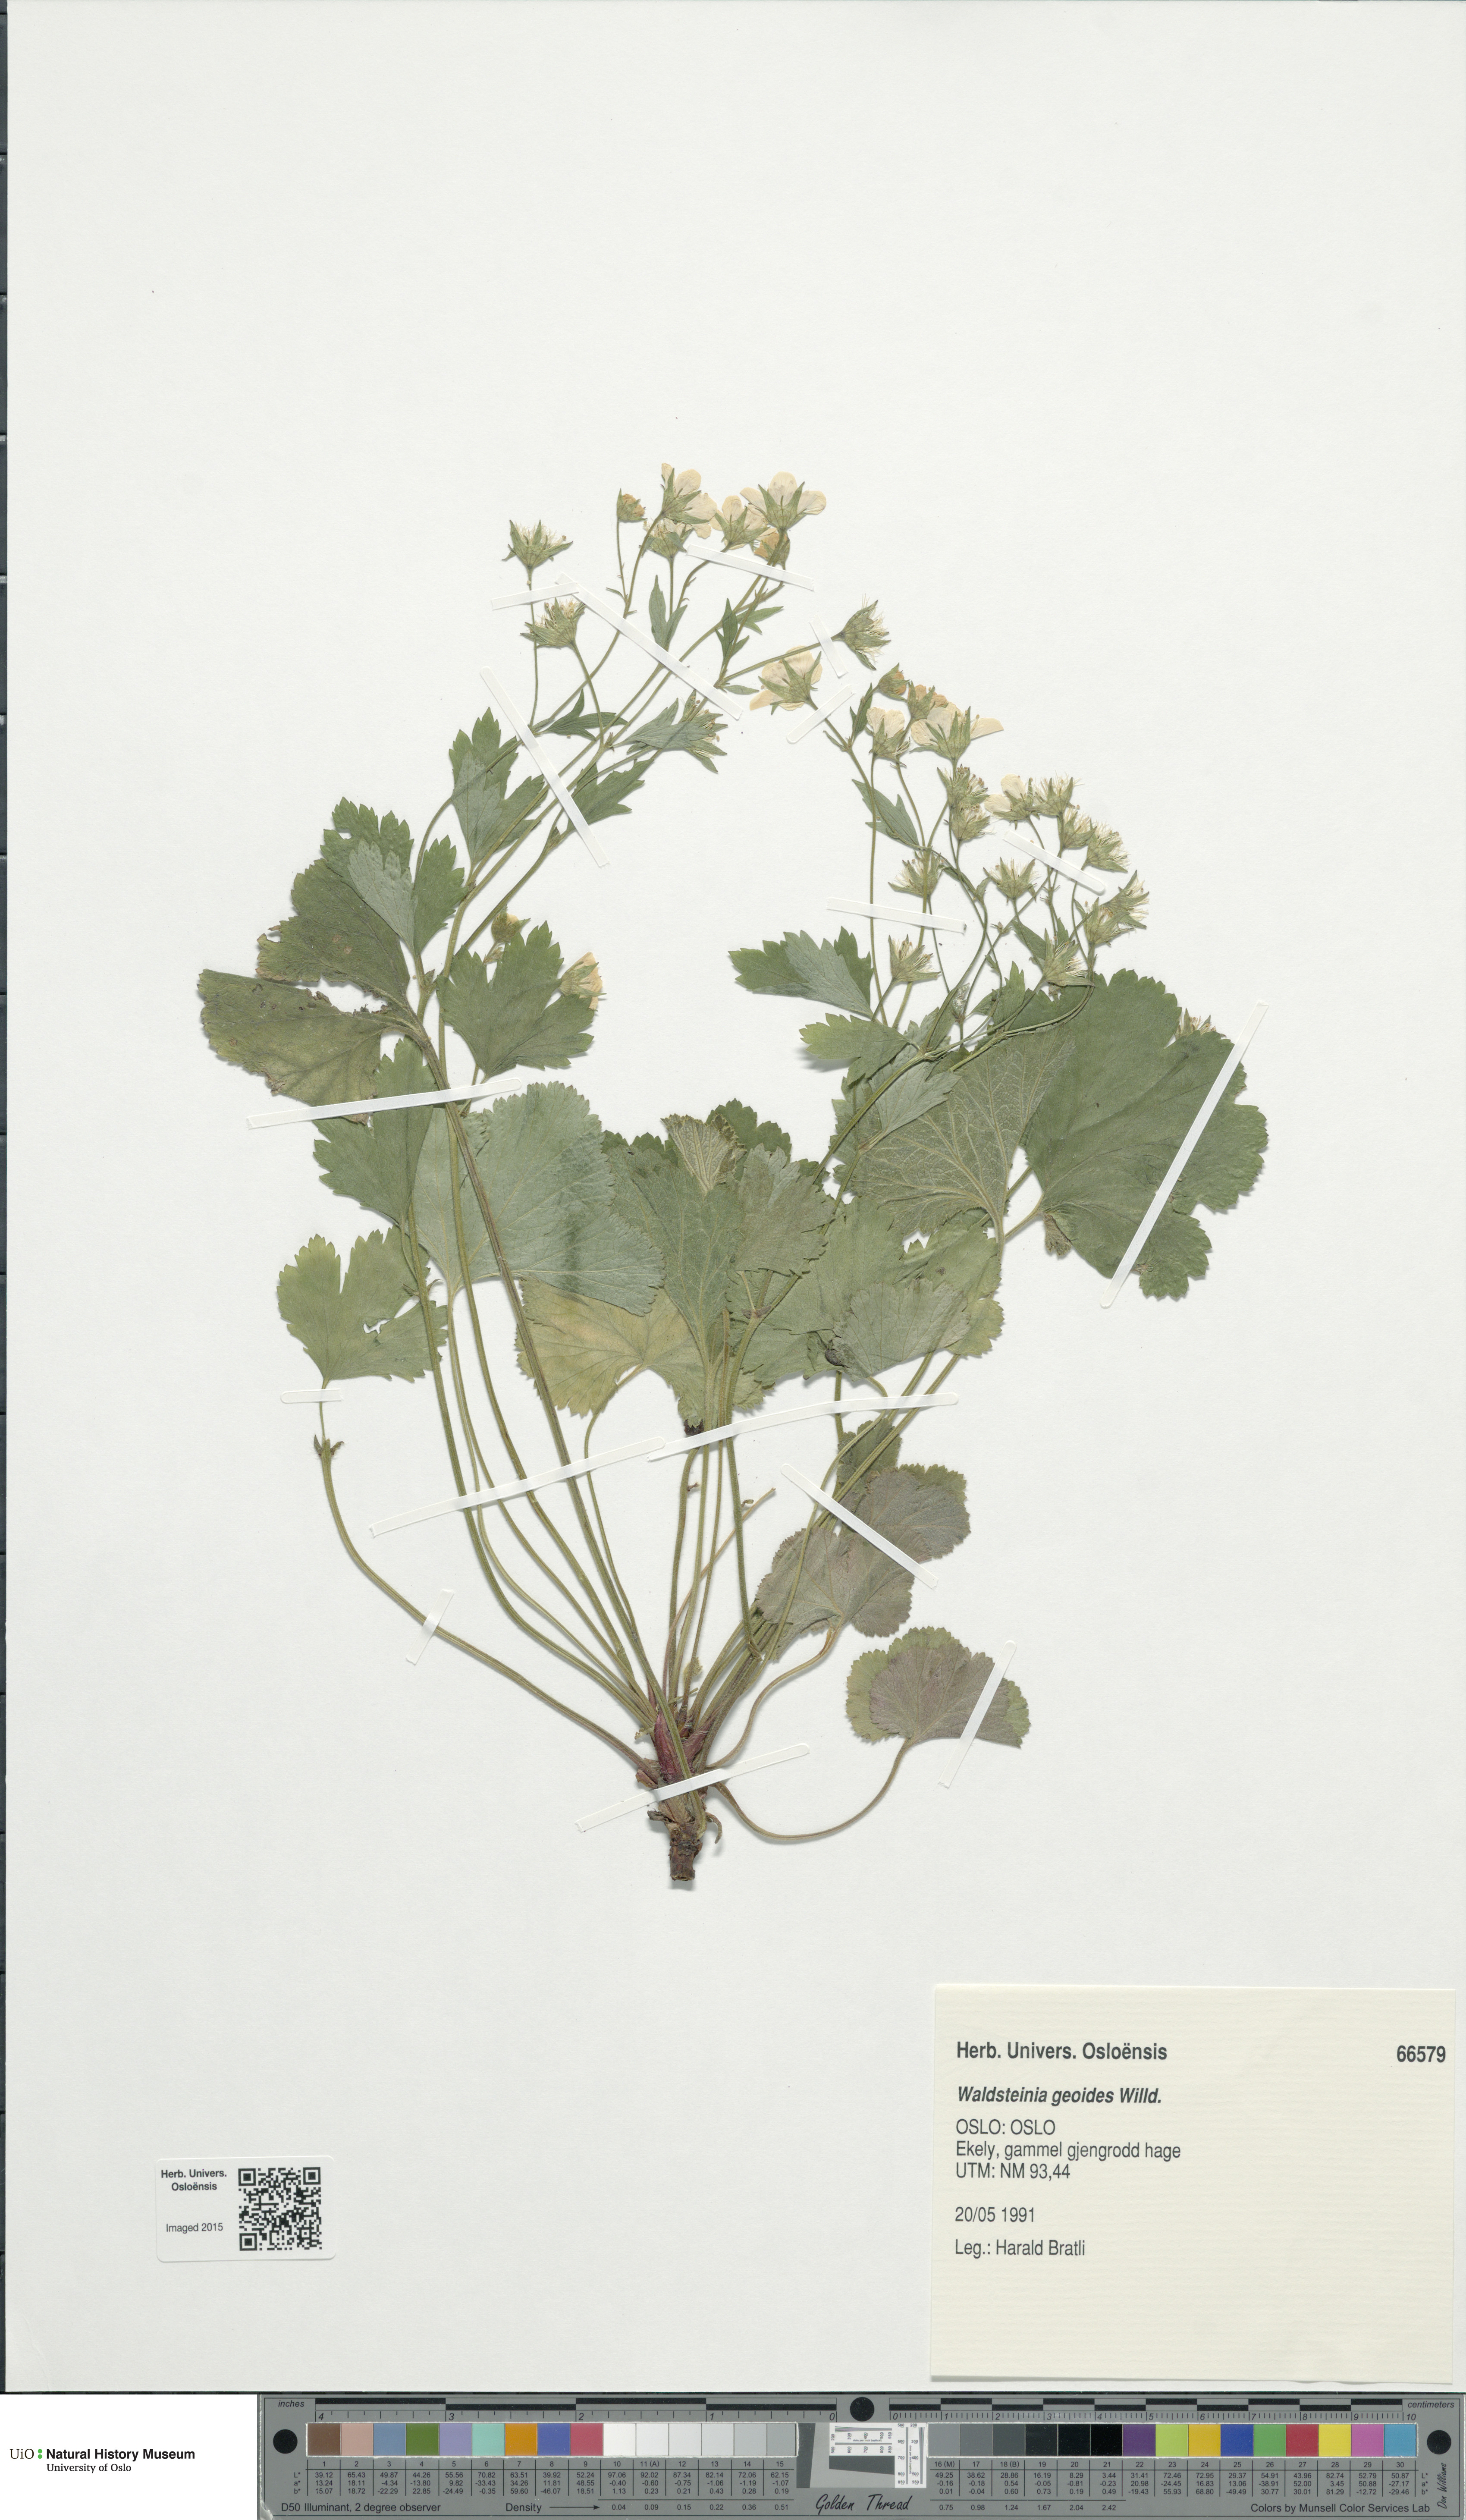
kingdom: Plantae
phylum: Tracheophyta
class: Magnoliopsida
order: Rosales
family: Rosaceae
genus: Geum
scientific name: Geum waldsteinia
